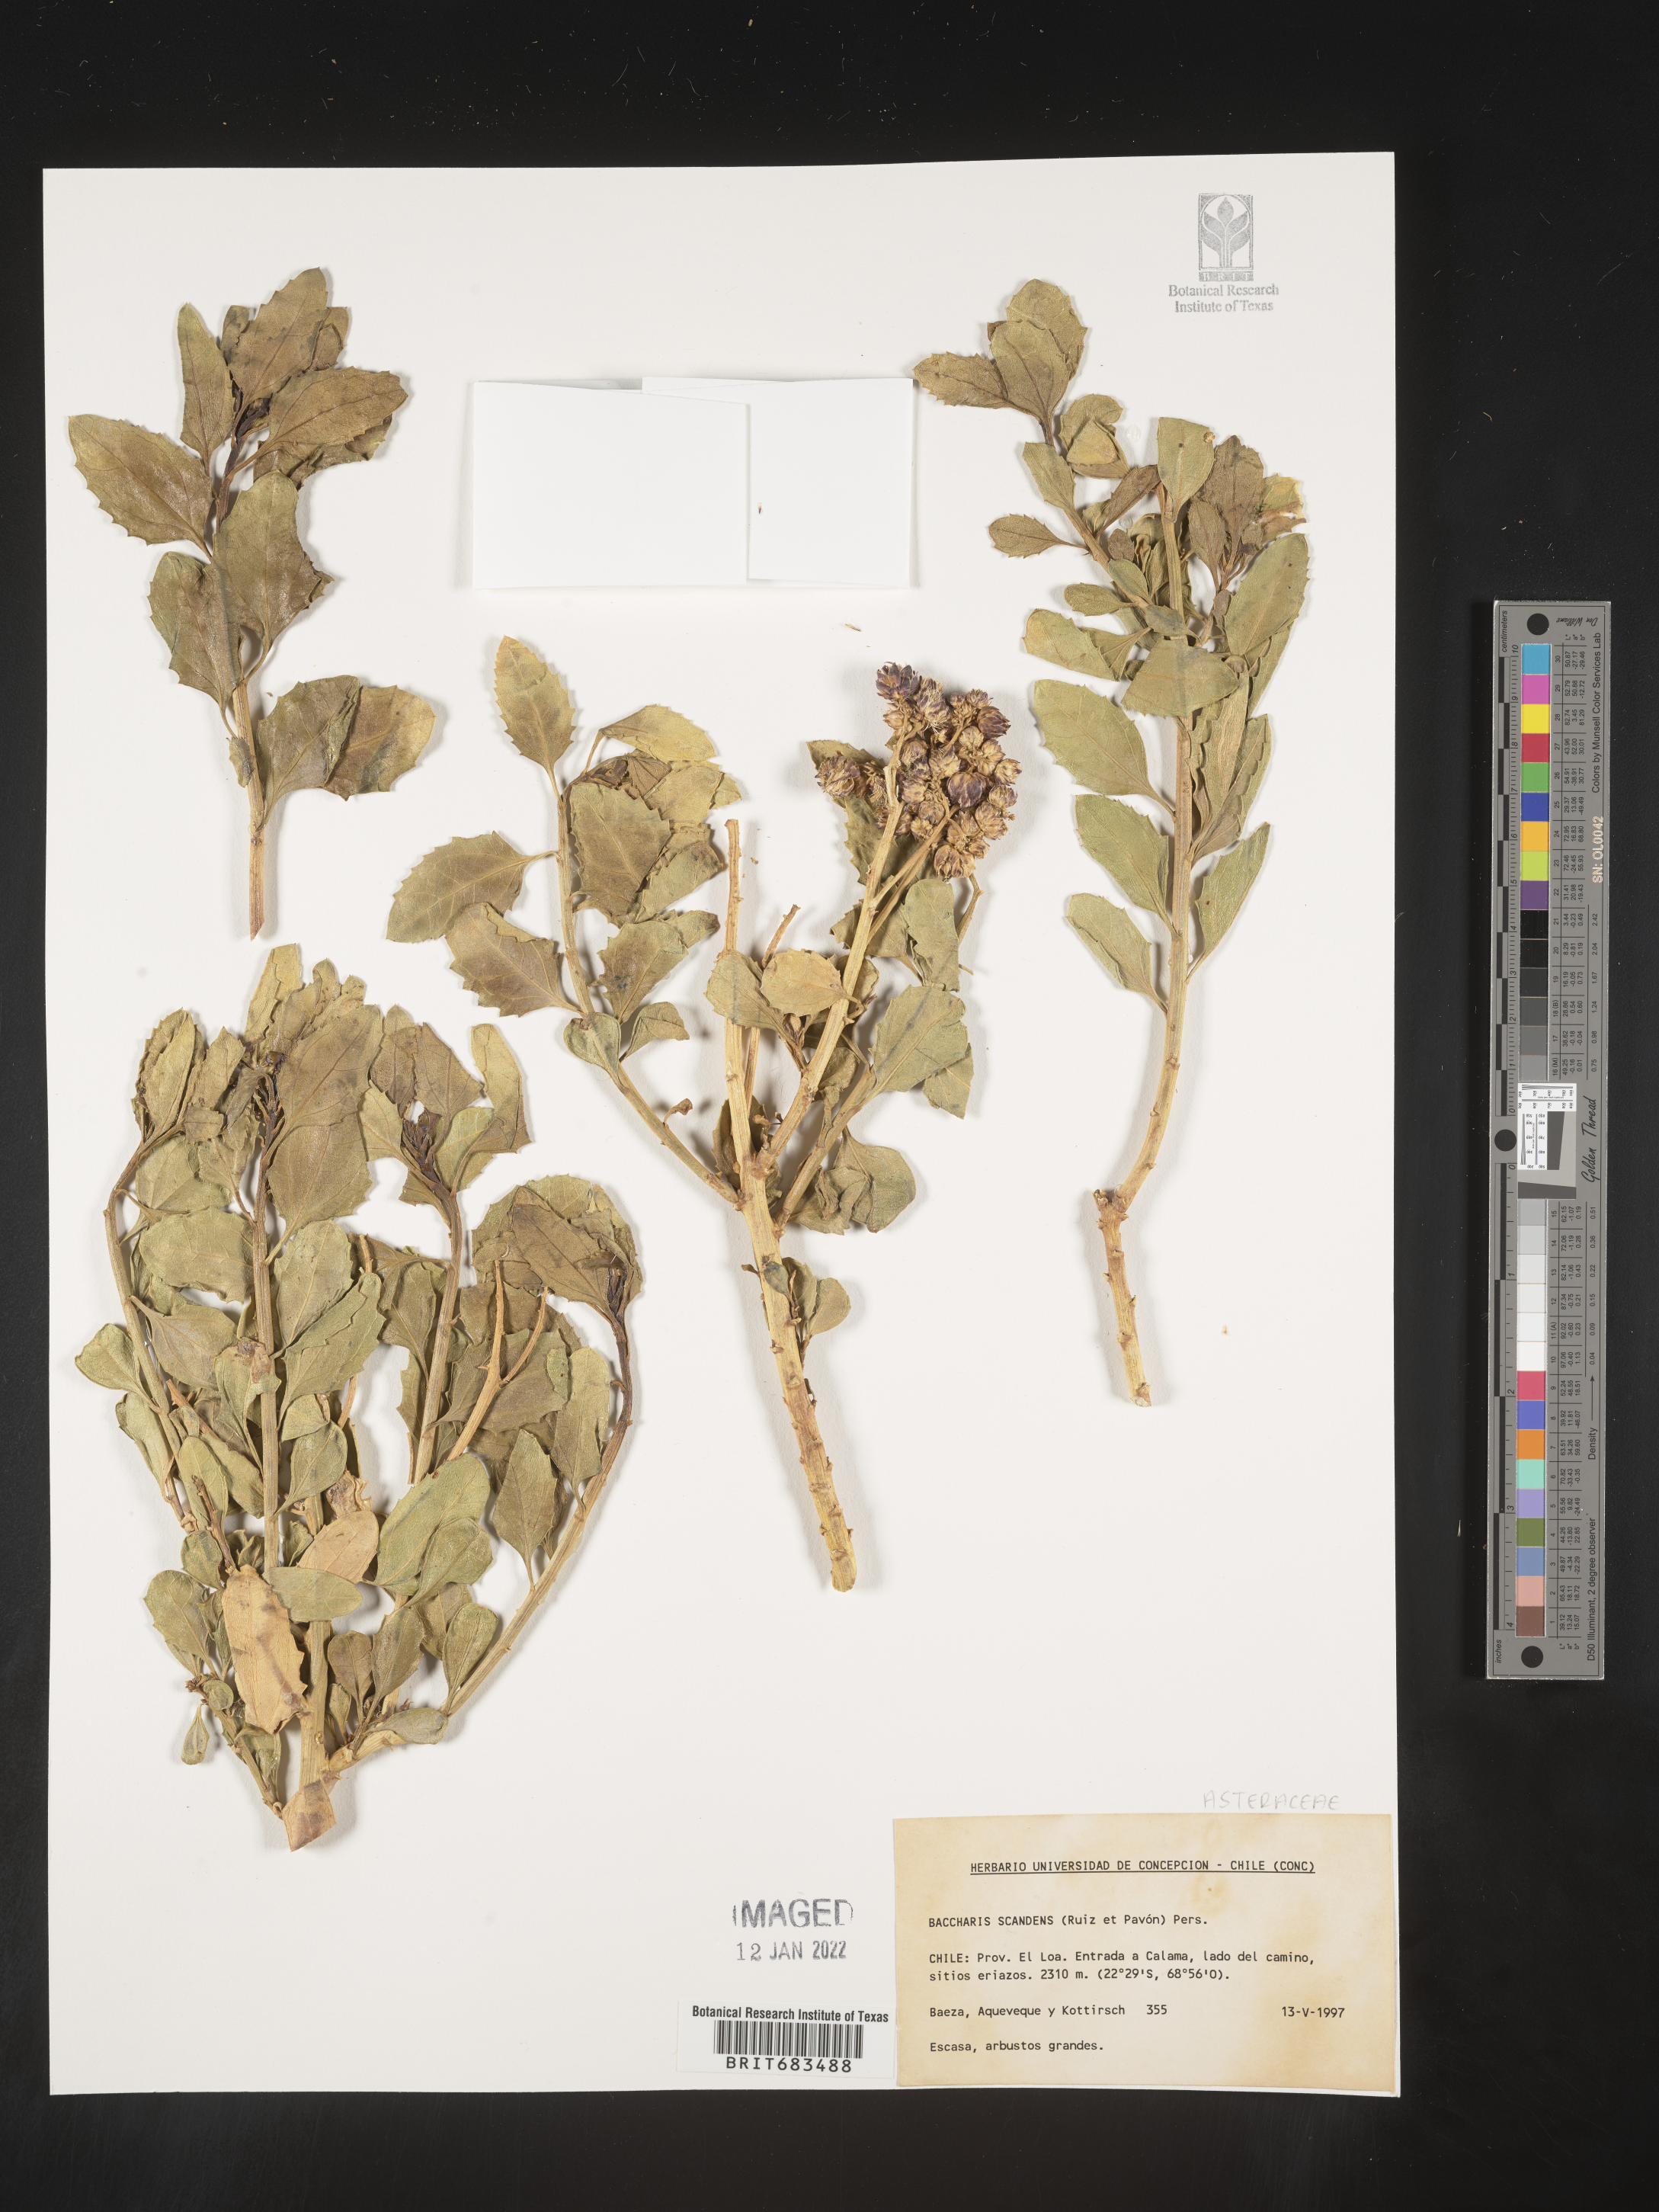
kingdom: Plantae
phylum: Tracheophyta
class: Magnoliopsida
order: Asterales
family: Asteraceae
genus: Baccharis
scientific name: Baccharis
